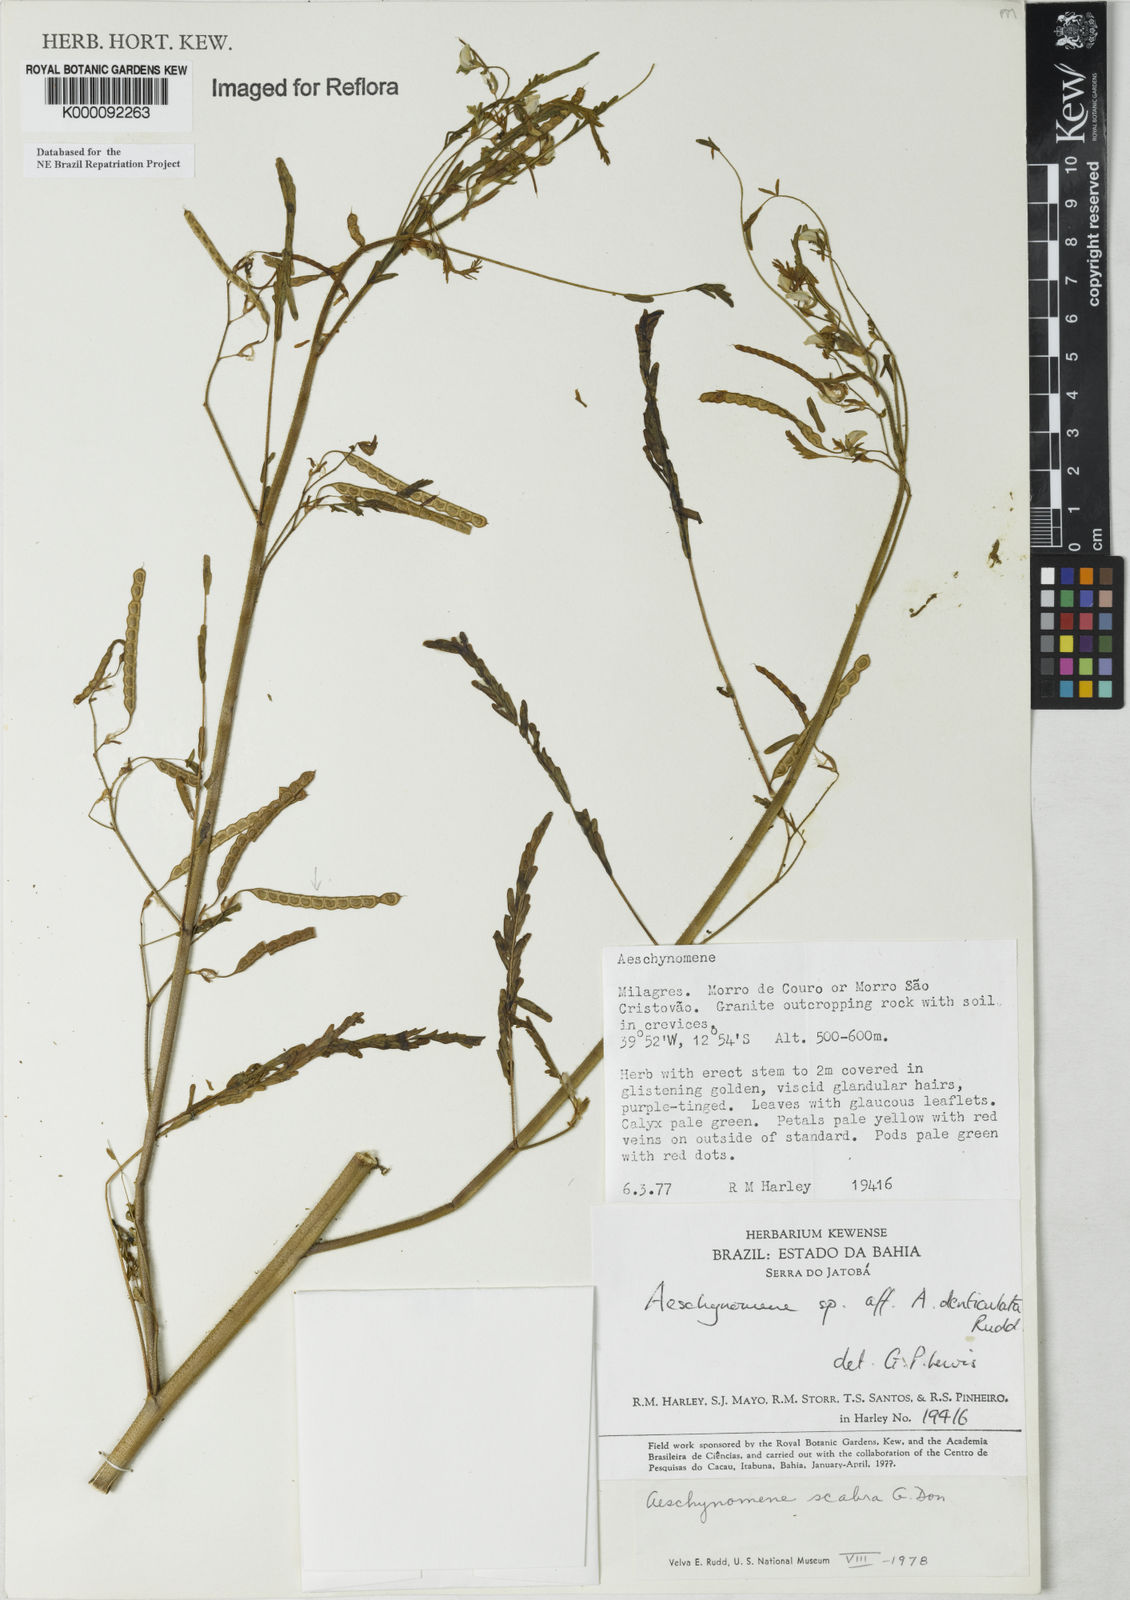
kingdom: Plantae
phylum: Tracheophyta
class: Magnoliopsida
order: Fabales
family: Fabaceae
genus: Aeschynomene
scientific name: Aeschynomene scabra
